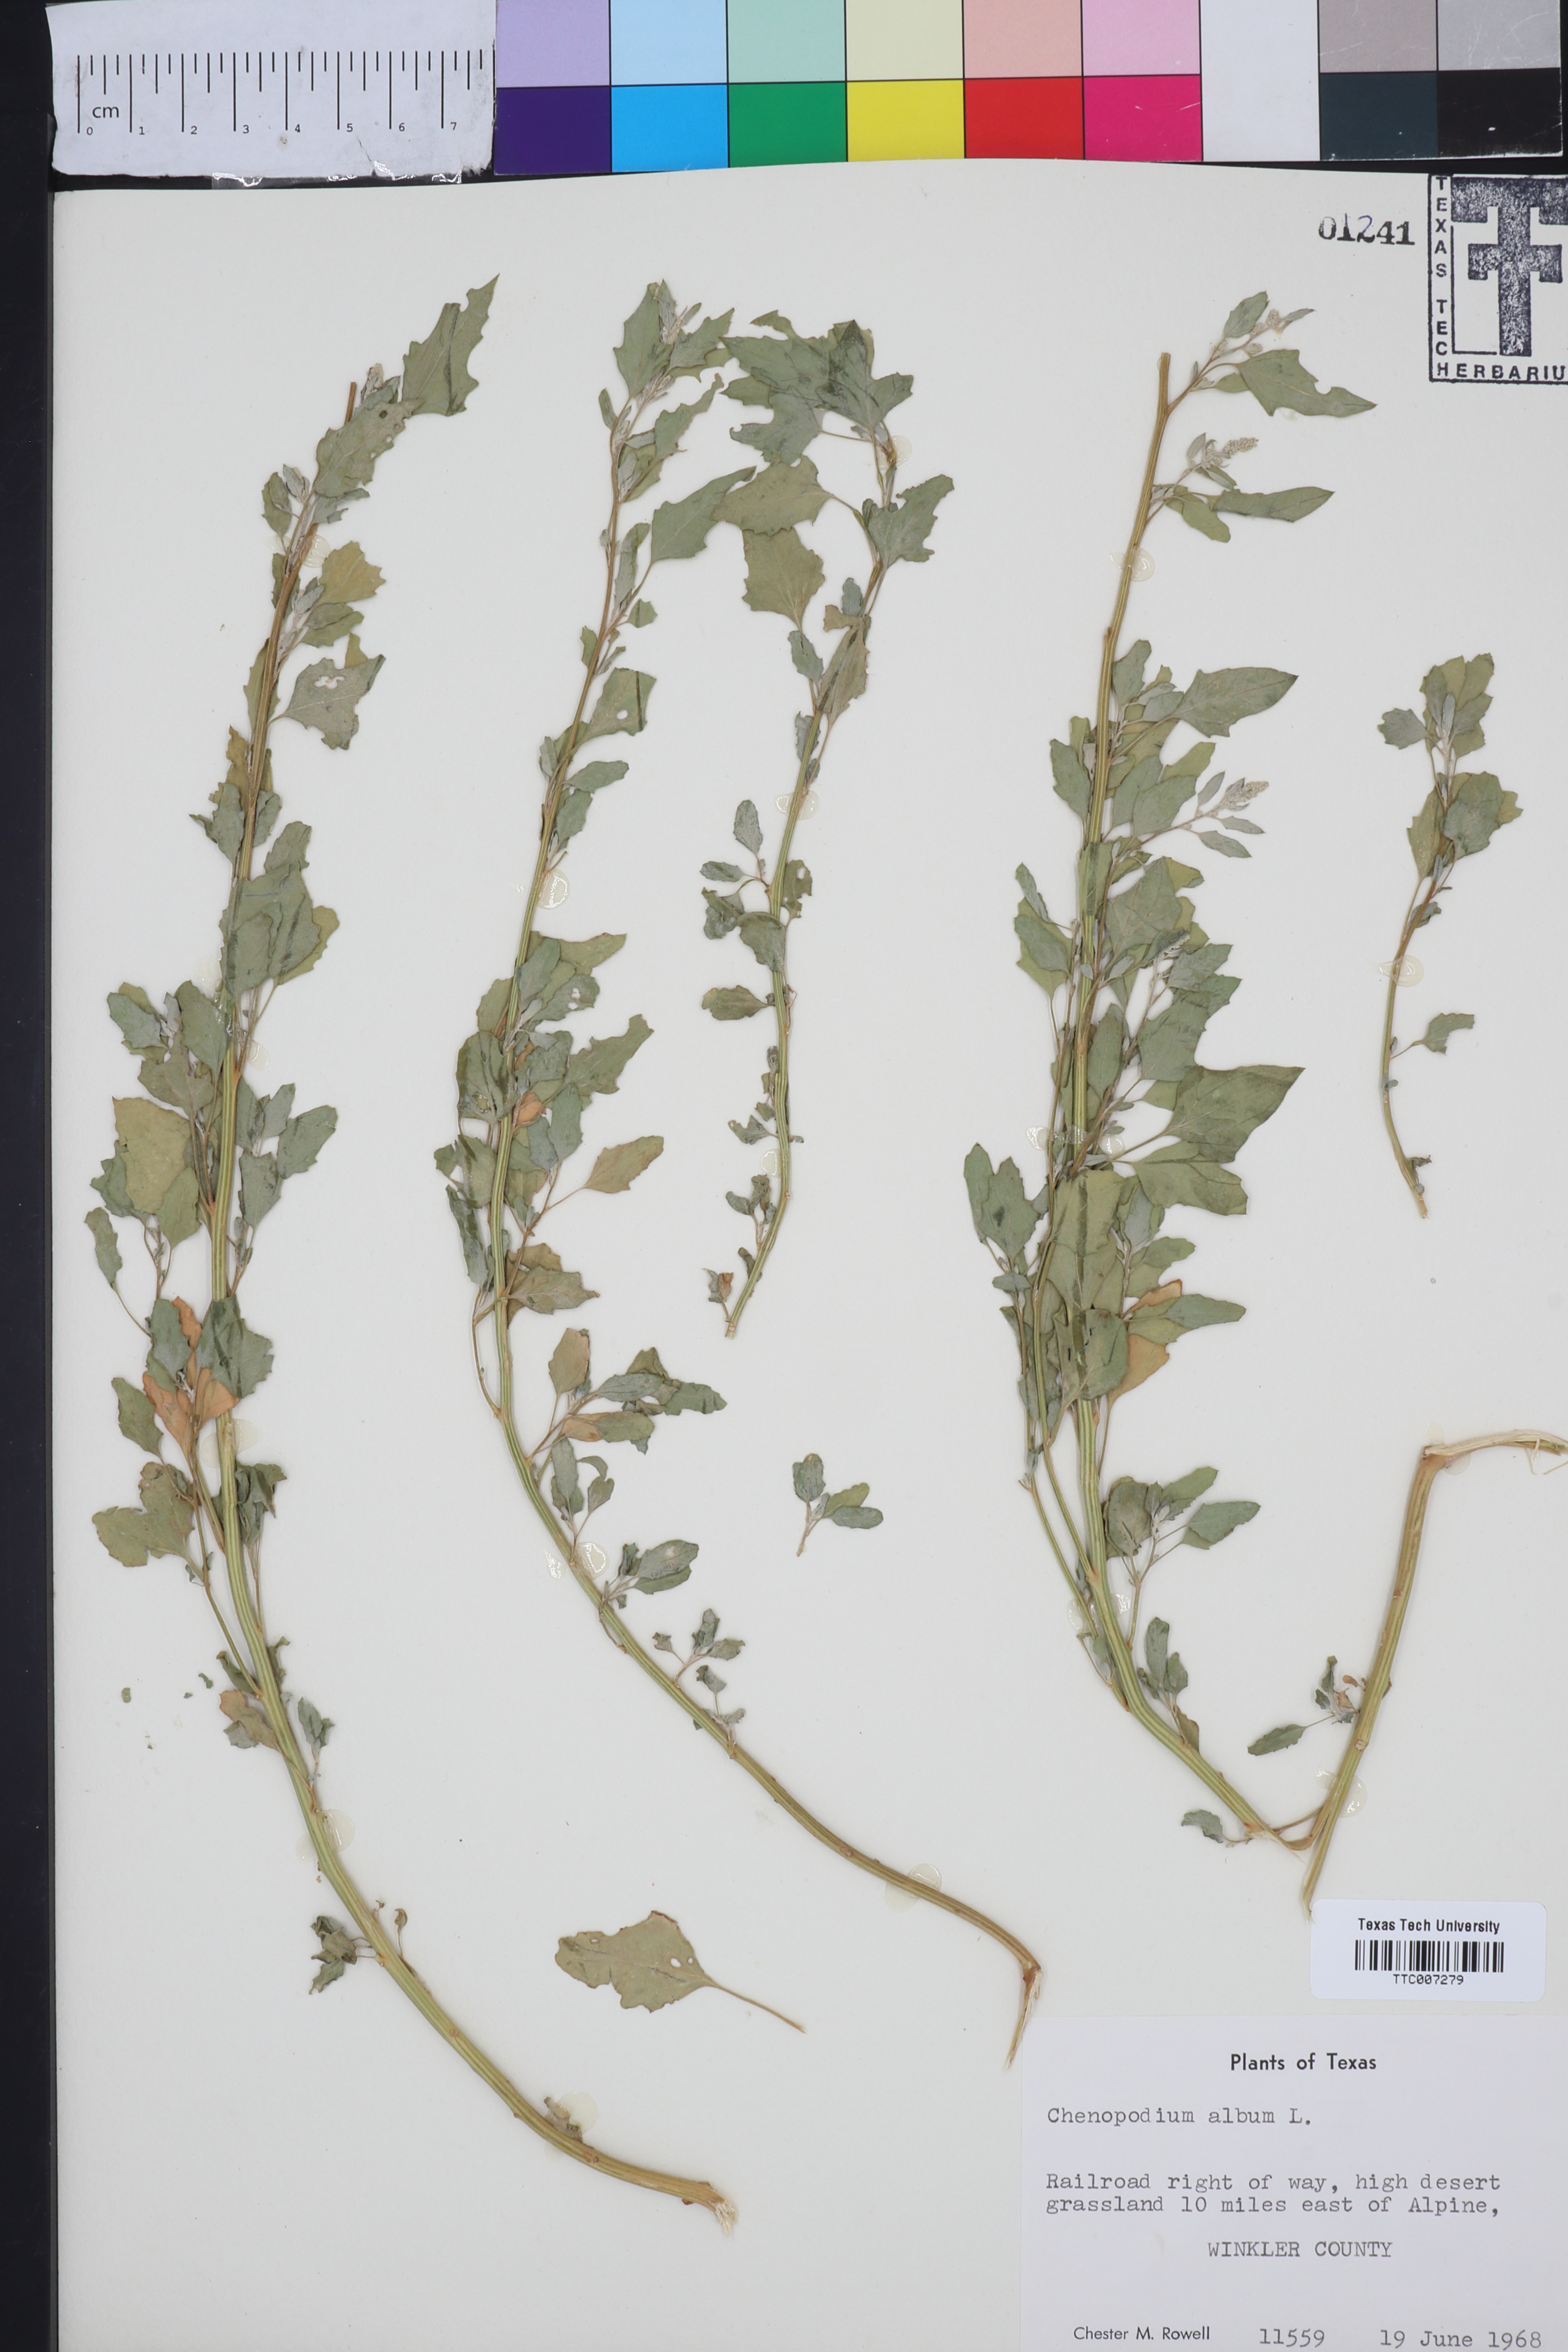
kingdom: Plantae
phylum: Tracheophyta
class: Magnoliopsida
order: Caryophyllales
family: Amaranthaceae
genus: Chenopodium
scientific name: Chenopodium album
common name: Fat-hen
